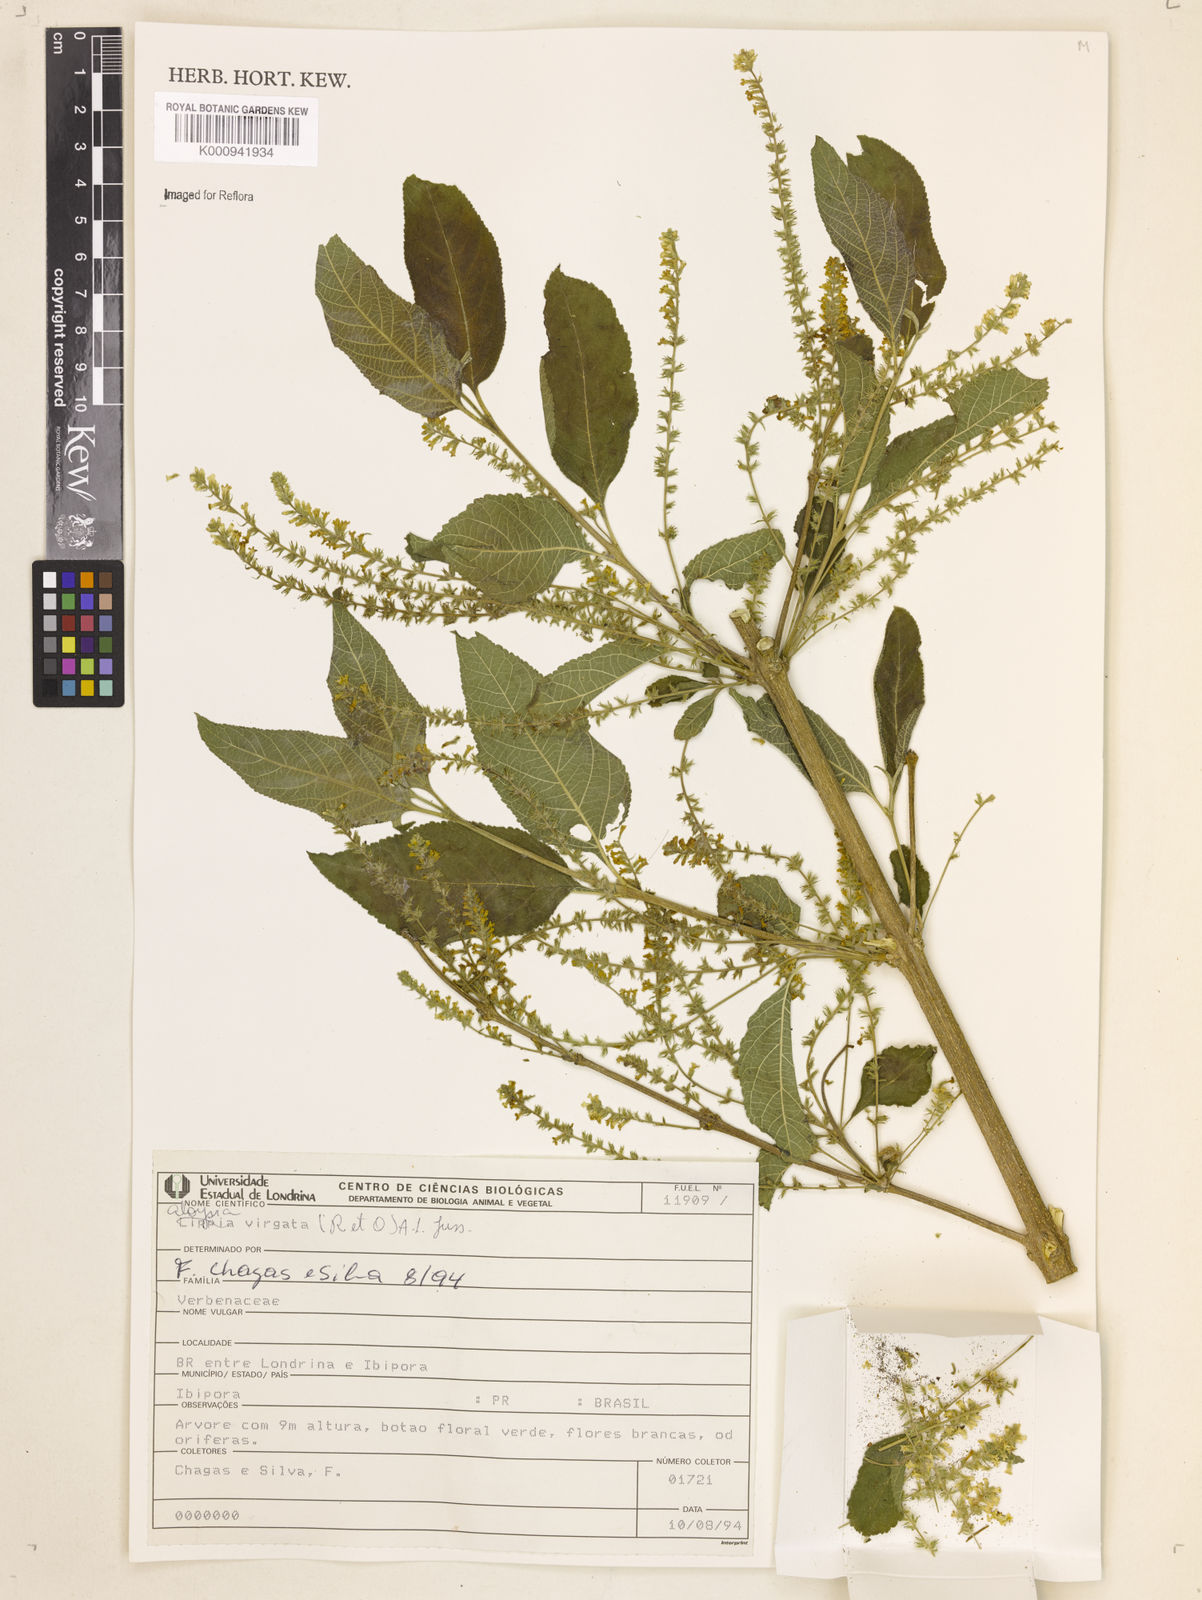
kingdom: Plantae
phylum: Tracheophyta
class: Magnoliopsida
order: Lamiales
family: Verbenaceae
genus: Aloysia
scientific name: Aloysia
